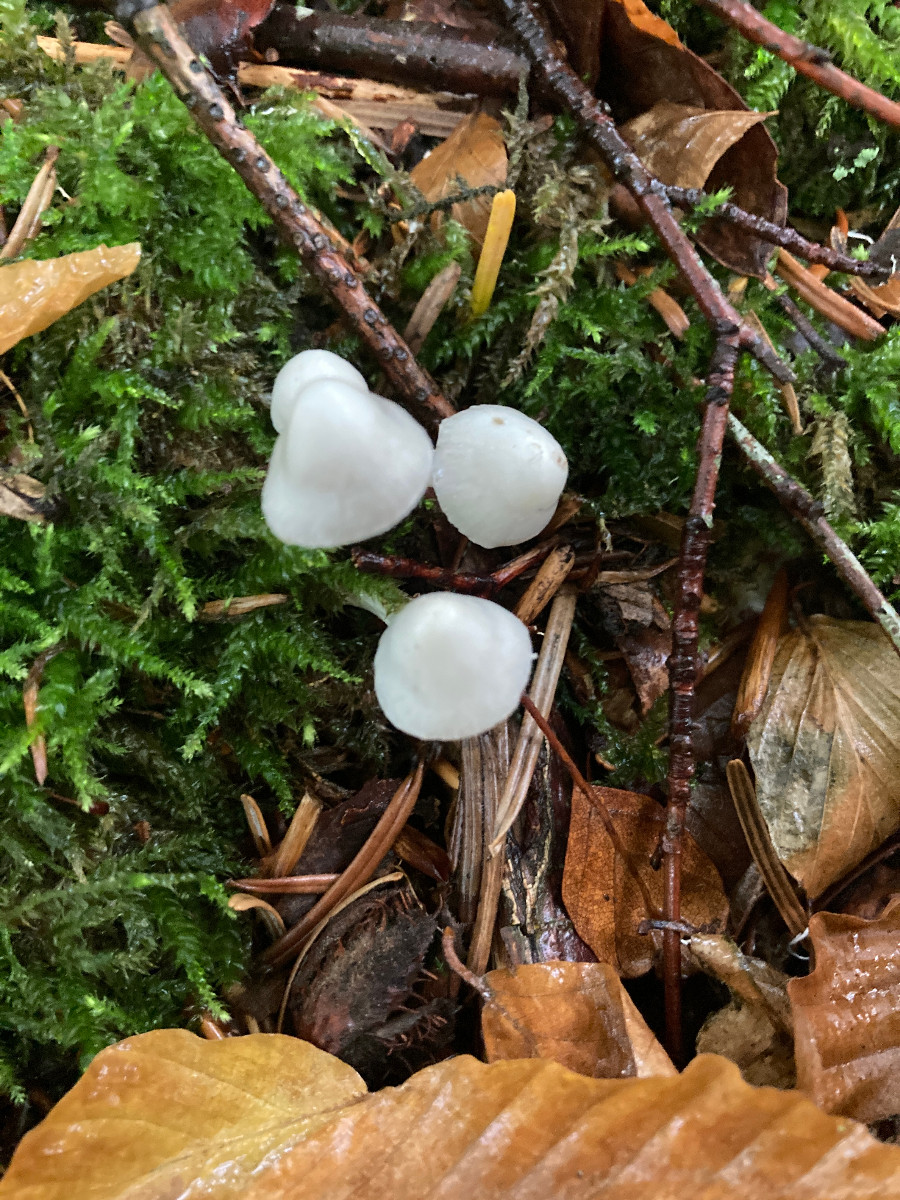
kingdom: Fungi
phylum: Basidiomycota
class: Agaricomycetes
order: Agaricales
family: Inocybaceae
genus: Inocybe
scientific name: Inocybe
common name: trævlhat
